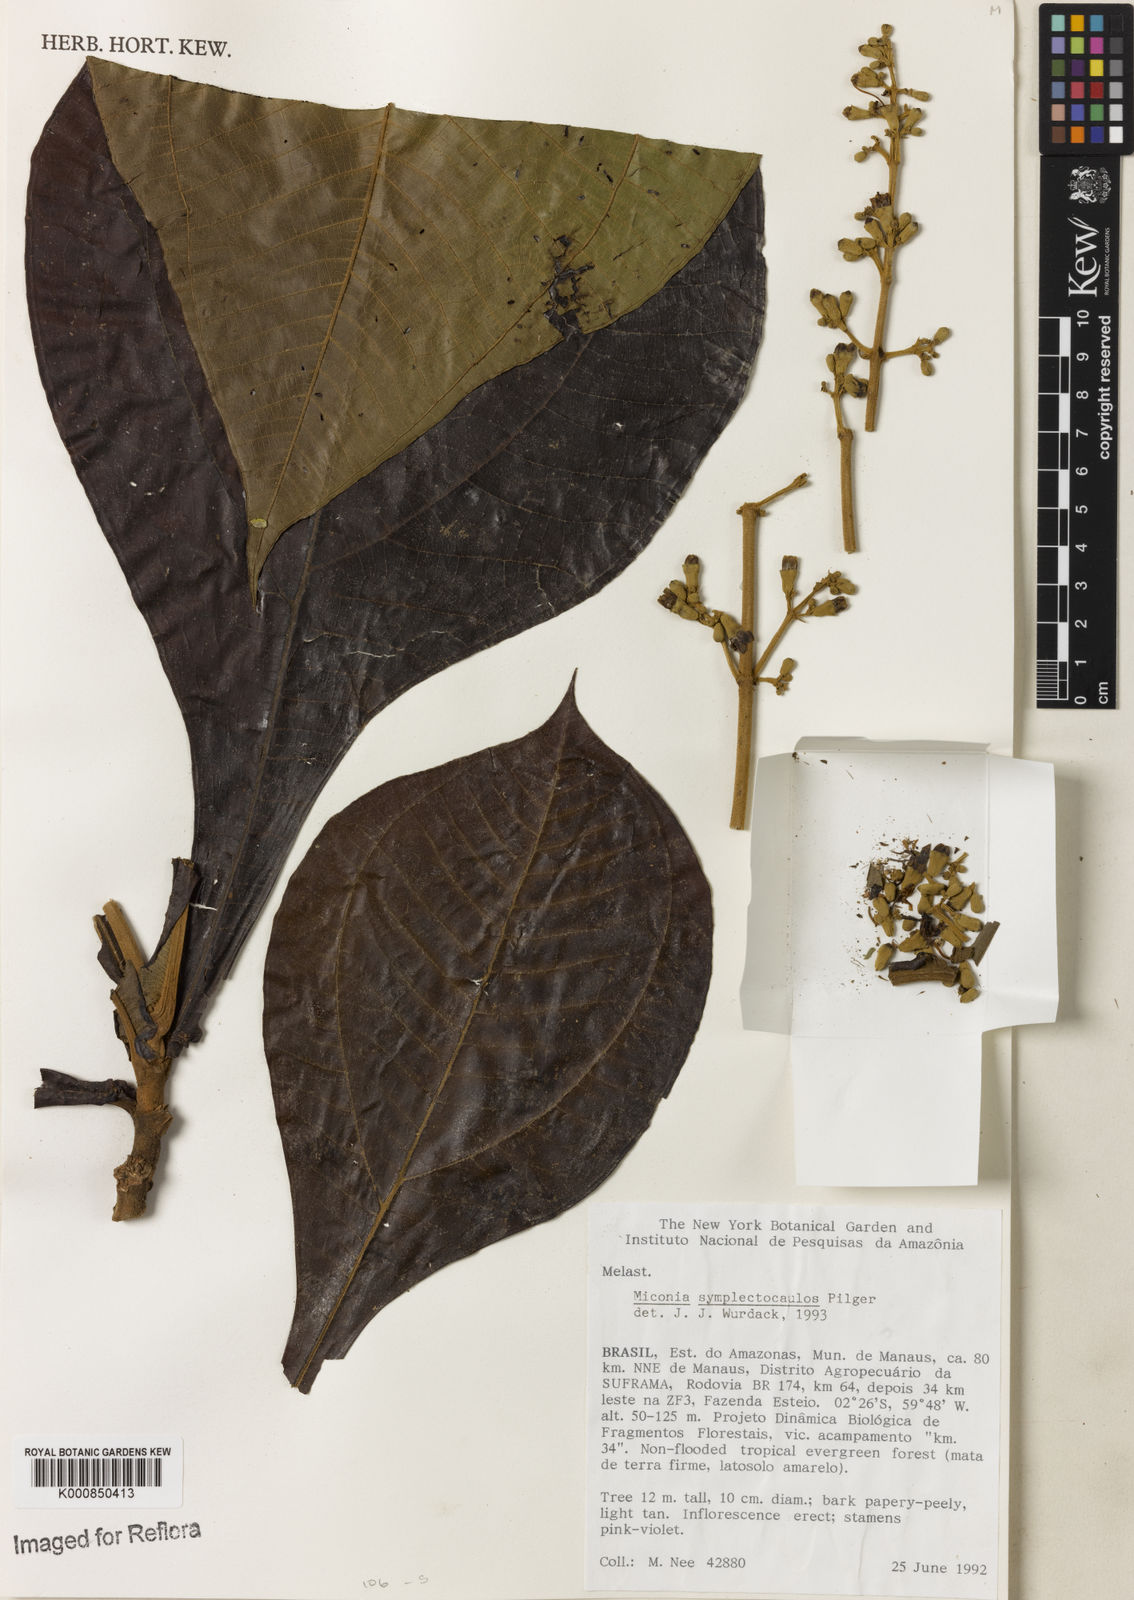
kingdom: Plantae
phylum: Tracheophyta
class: Magnoliopsida
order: Myrtales
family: Melastomataceae
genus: Miconia
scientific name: Miconia symplectocaulos
